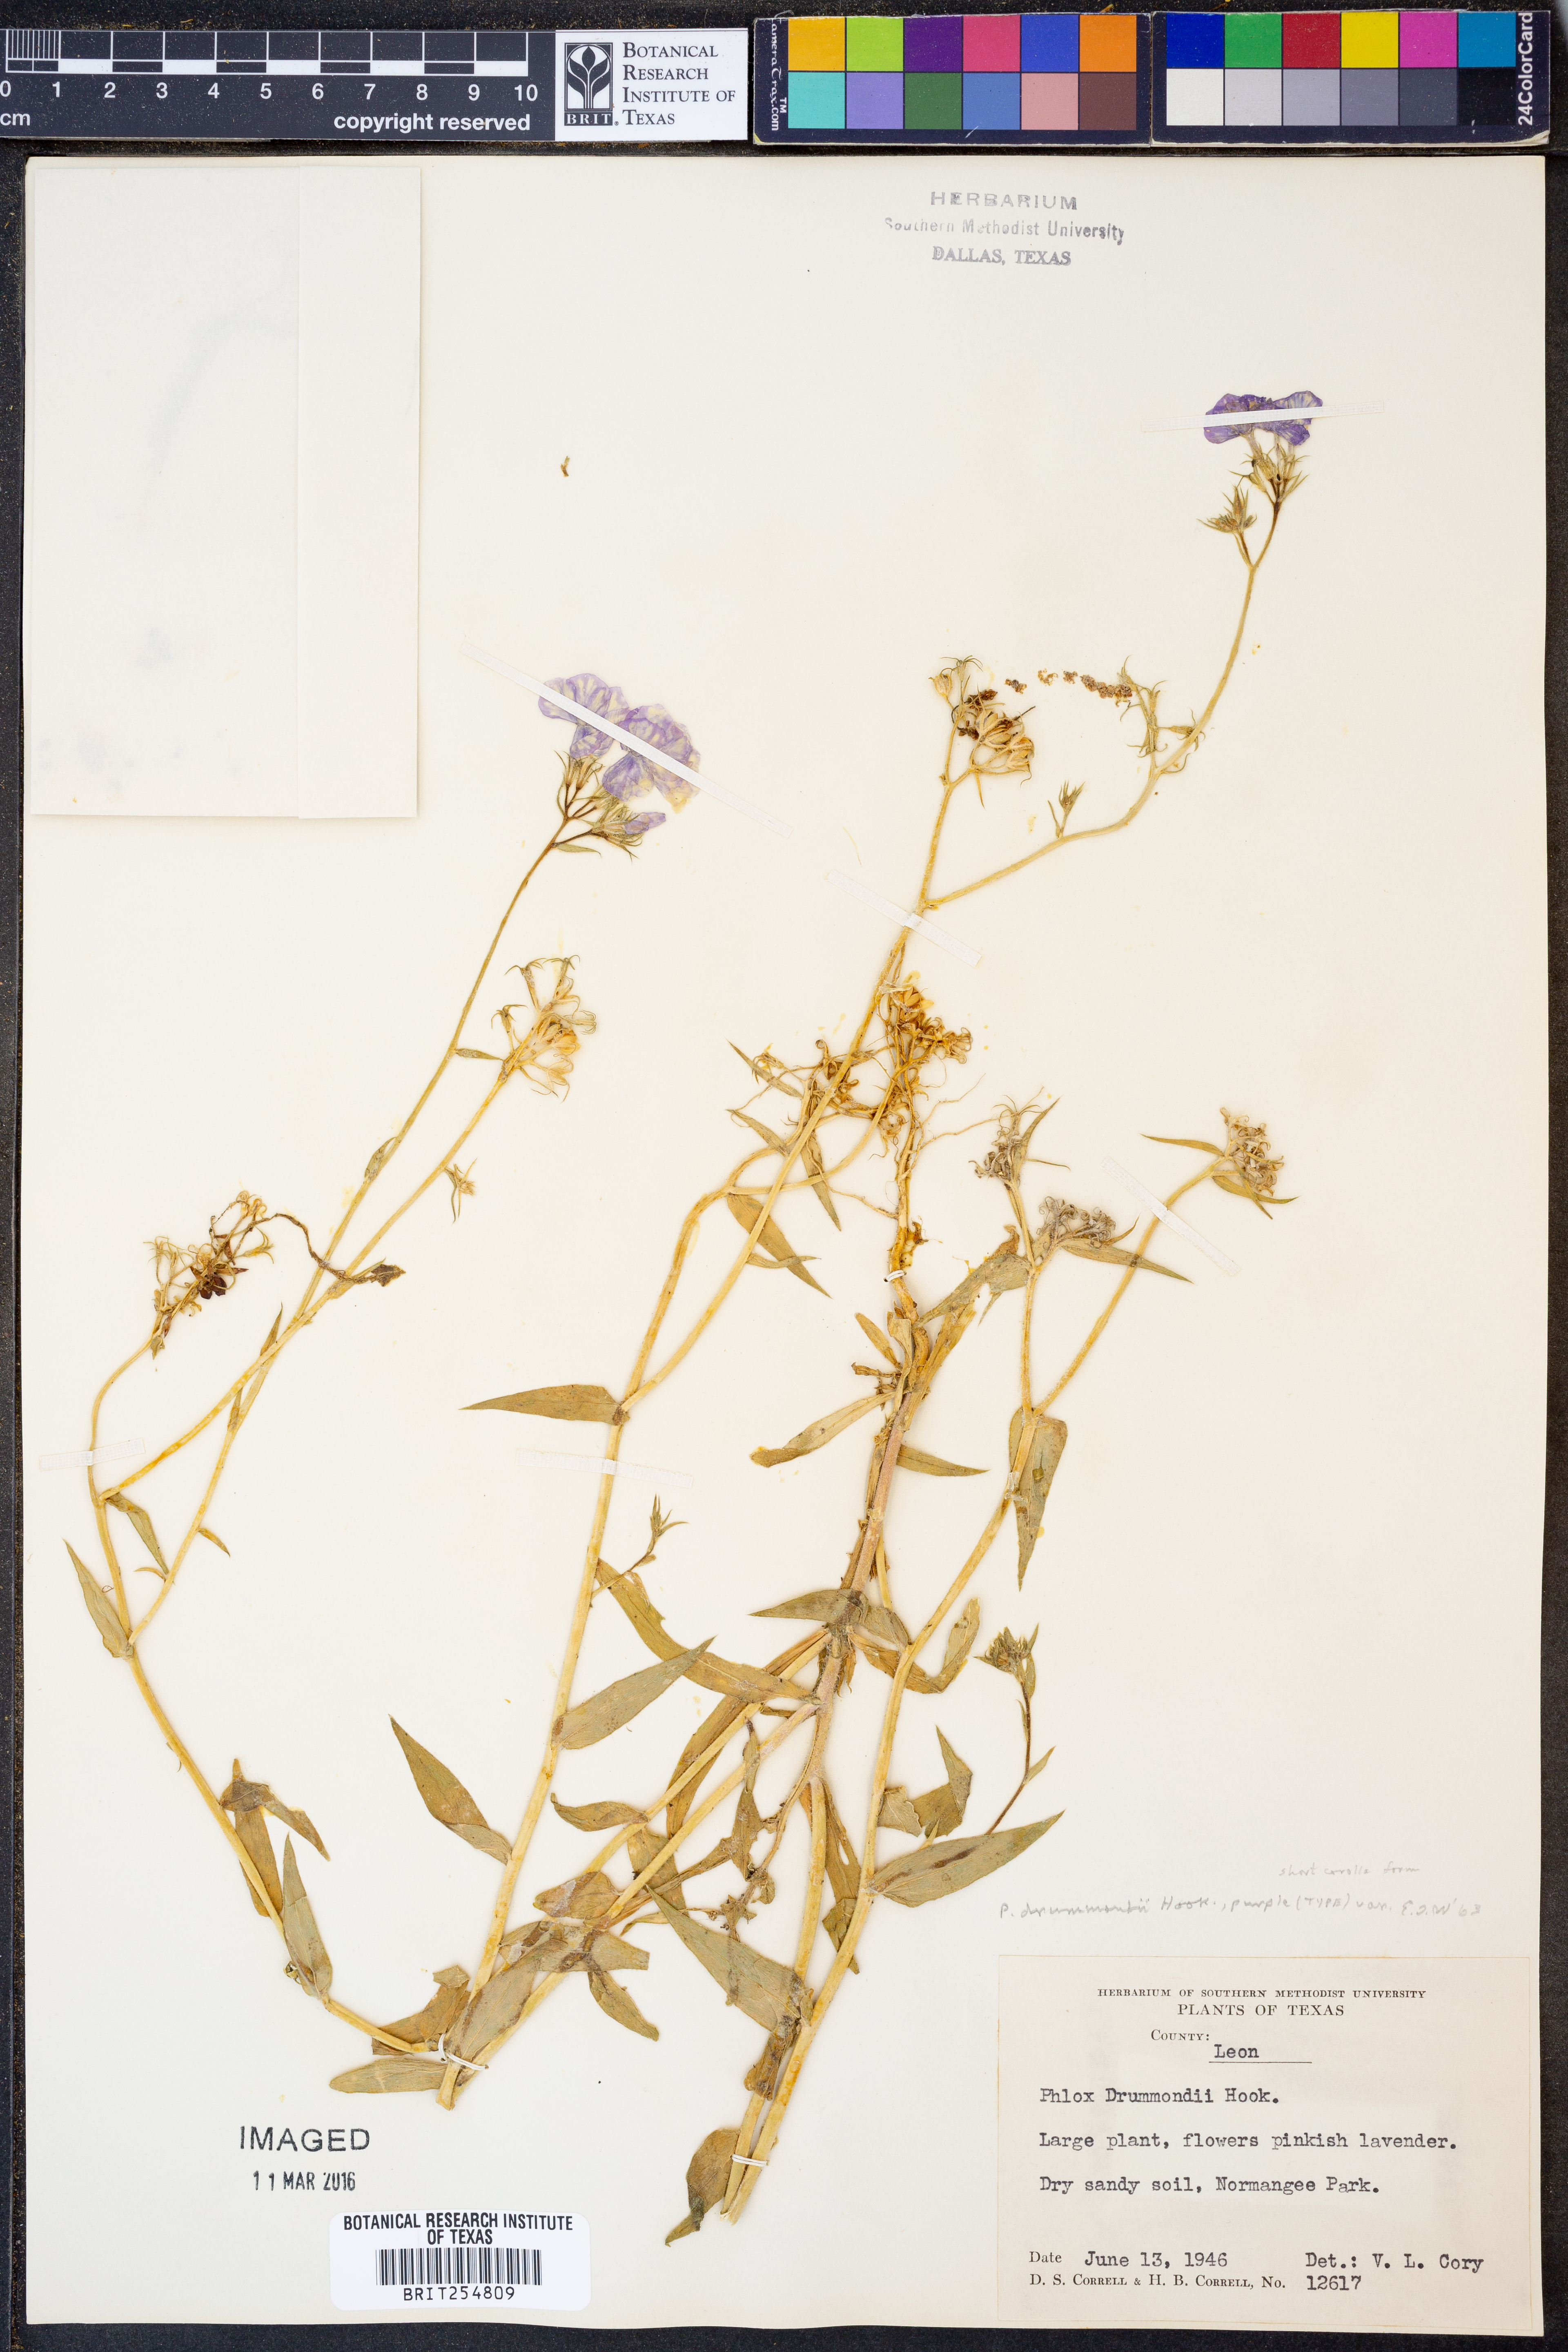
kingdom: Plantae
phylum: Tracheophyta
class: Magnoliopsida
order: Ericales
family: Polemoniaceae
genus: Phlox
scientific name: Phlox drummondii
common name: Drummond's phlox
